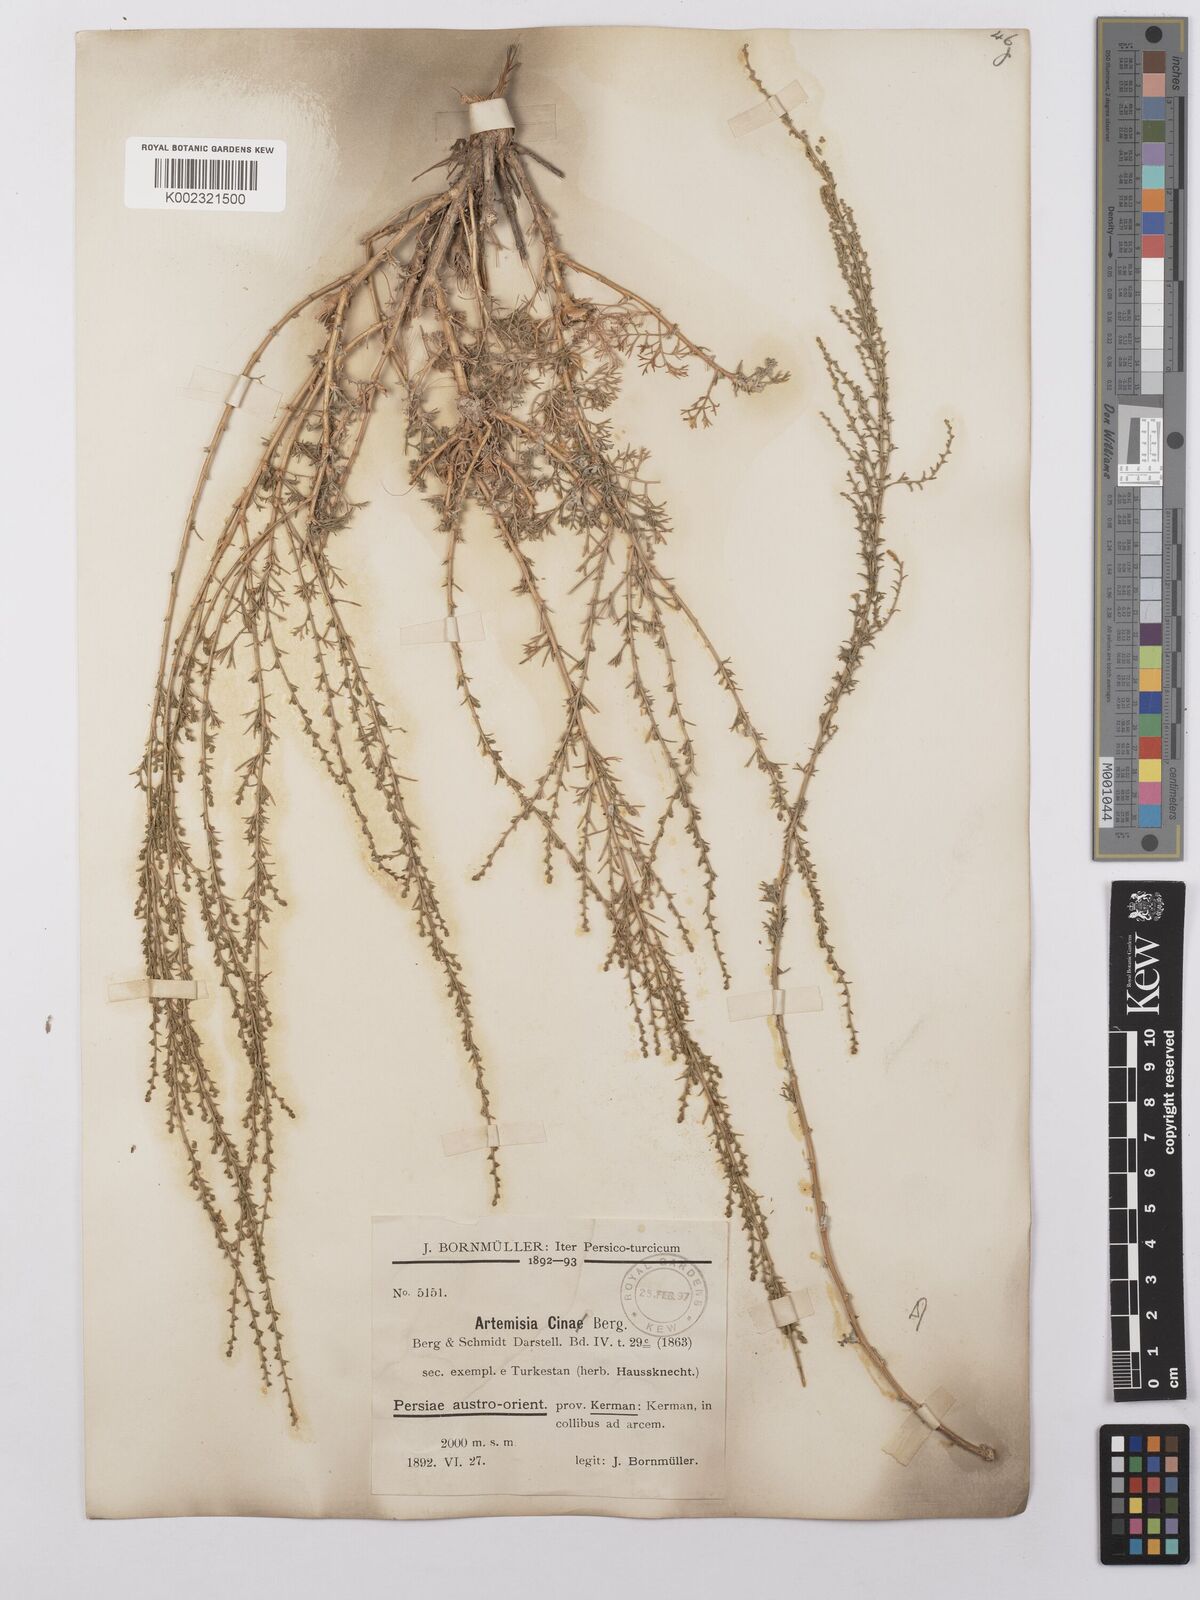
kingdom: Plantae
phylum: Tracheophyta
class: Magnoliopsida
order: Asterales
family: Asteraceae
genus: Artemisia
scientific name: Artemisia cina
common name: Levant wormseed
